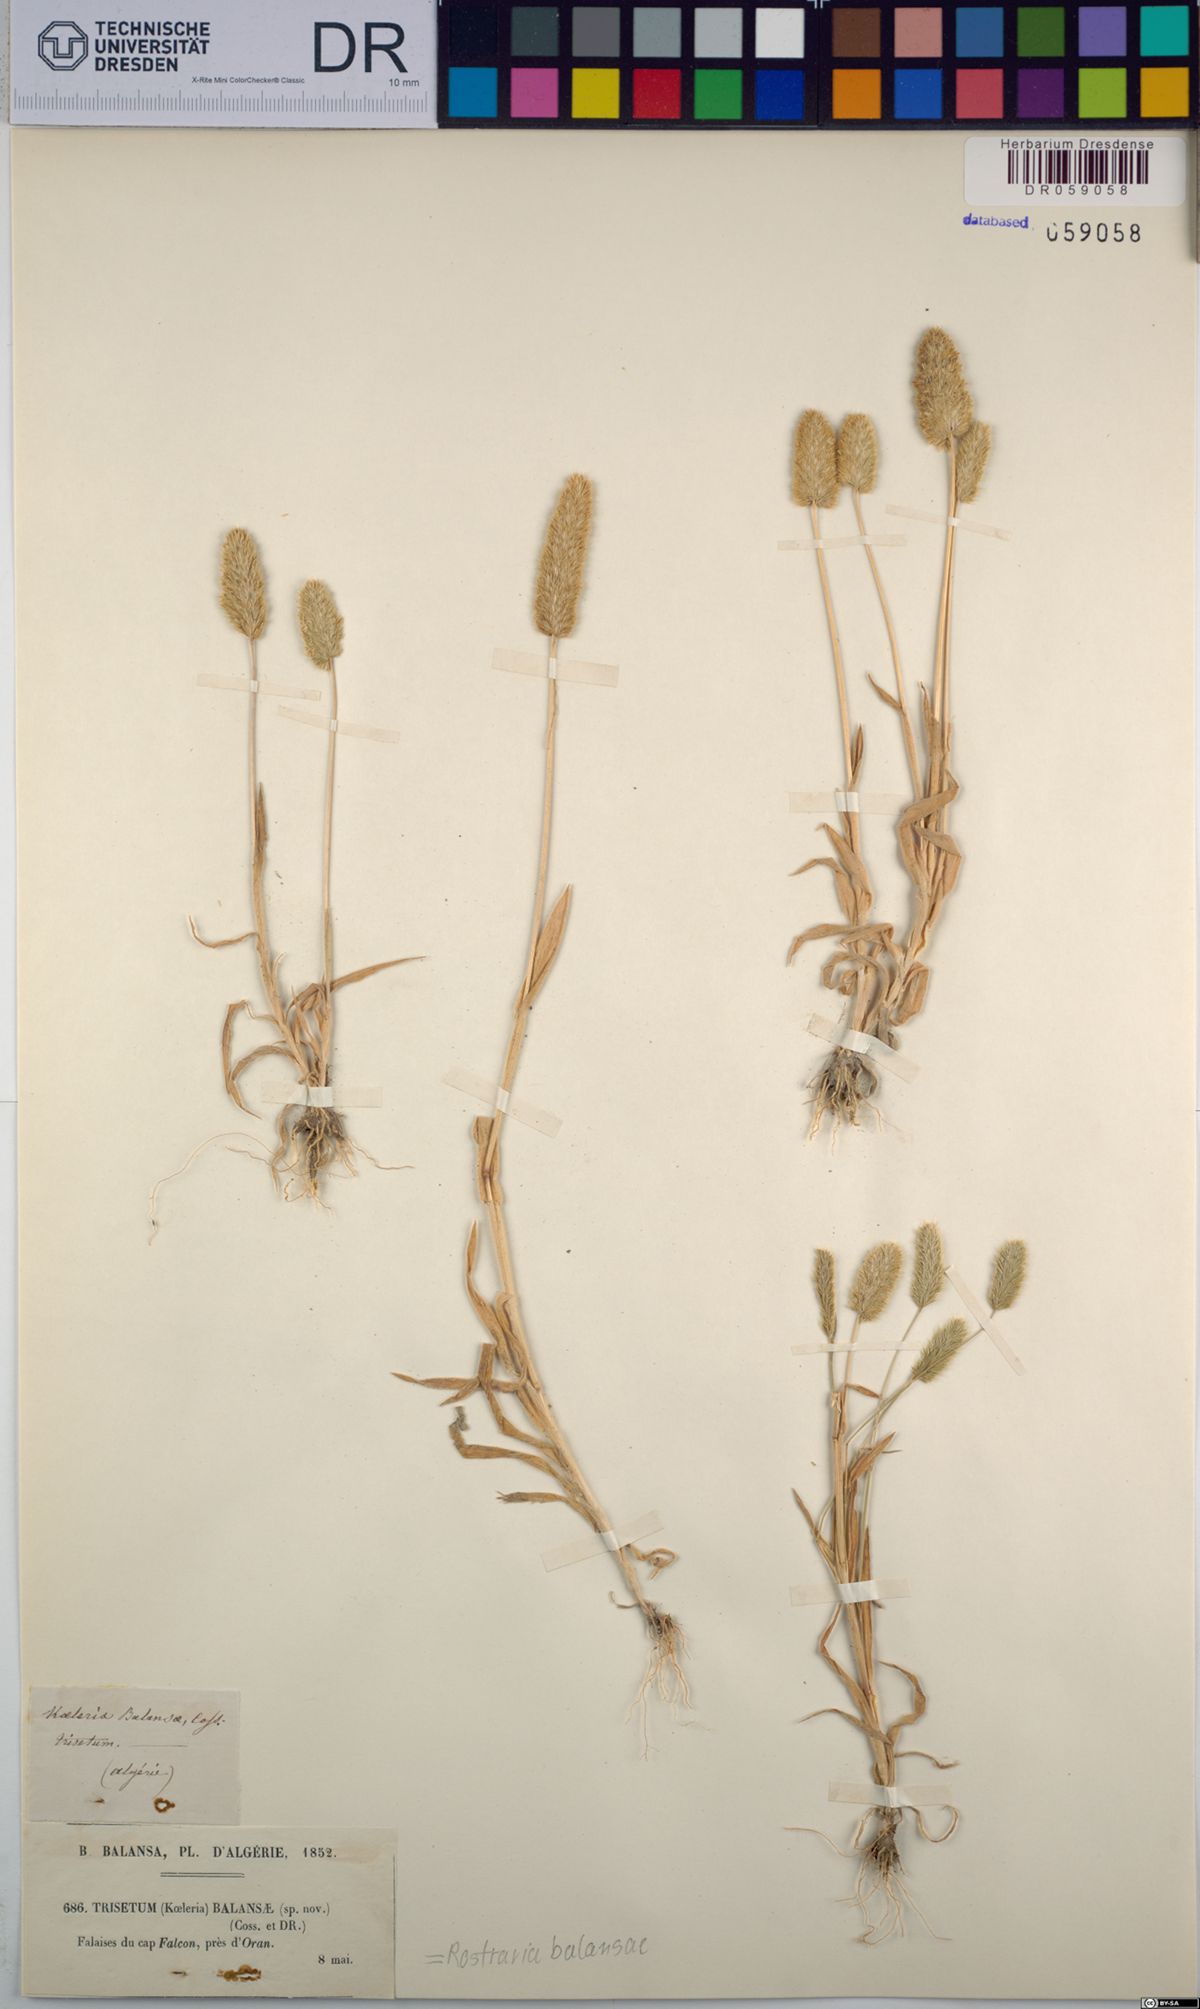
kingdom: Plantae
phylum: Tracheophyta
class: Liliopsida
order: Poales
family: Poaceae
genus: Rostraria
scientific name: Rostraria balansae
